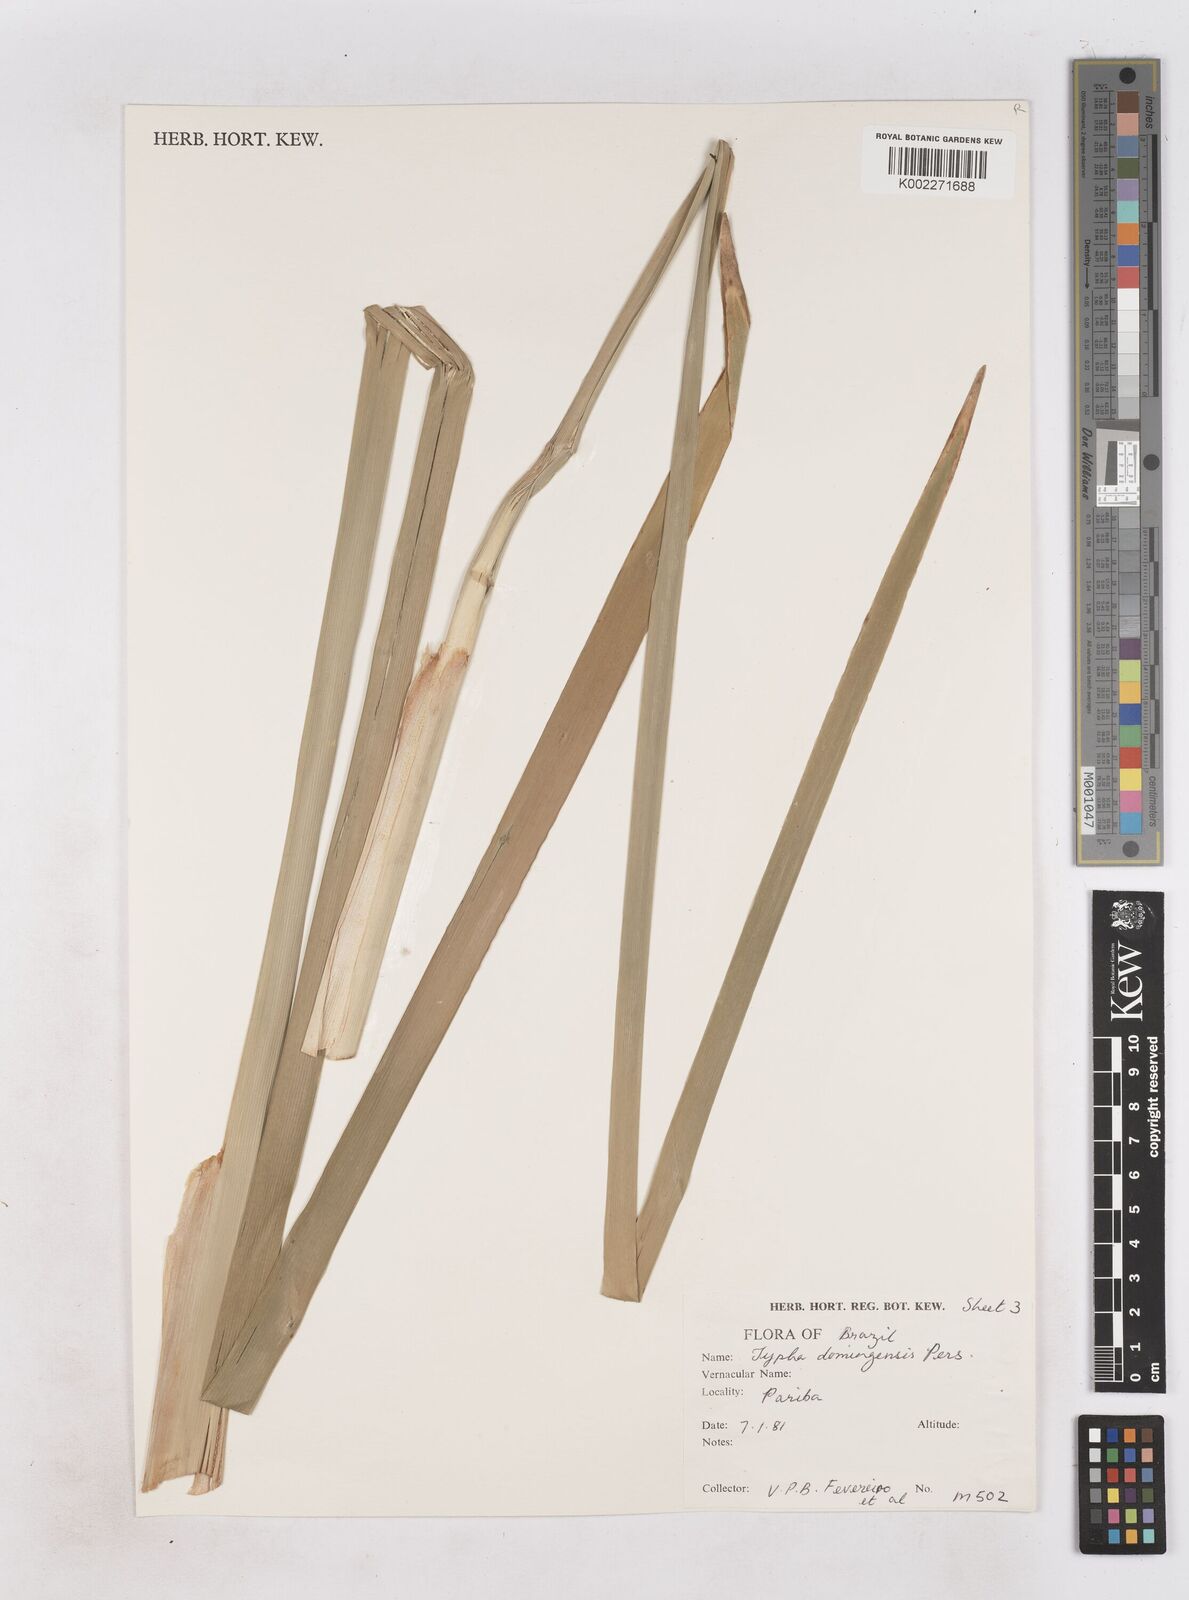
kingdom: Plantae
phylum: Tracheophyta
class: Liliopsida
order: Poales
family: Typhaceae
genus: Typha
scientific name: Typha domingensis
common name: Southern cattail
